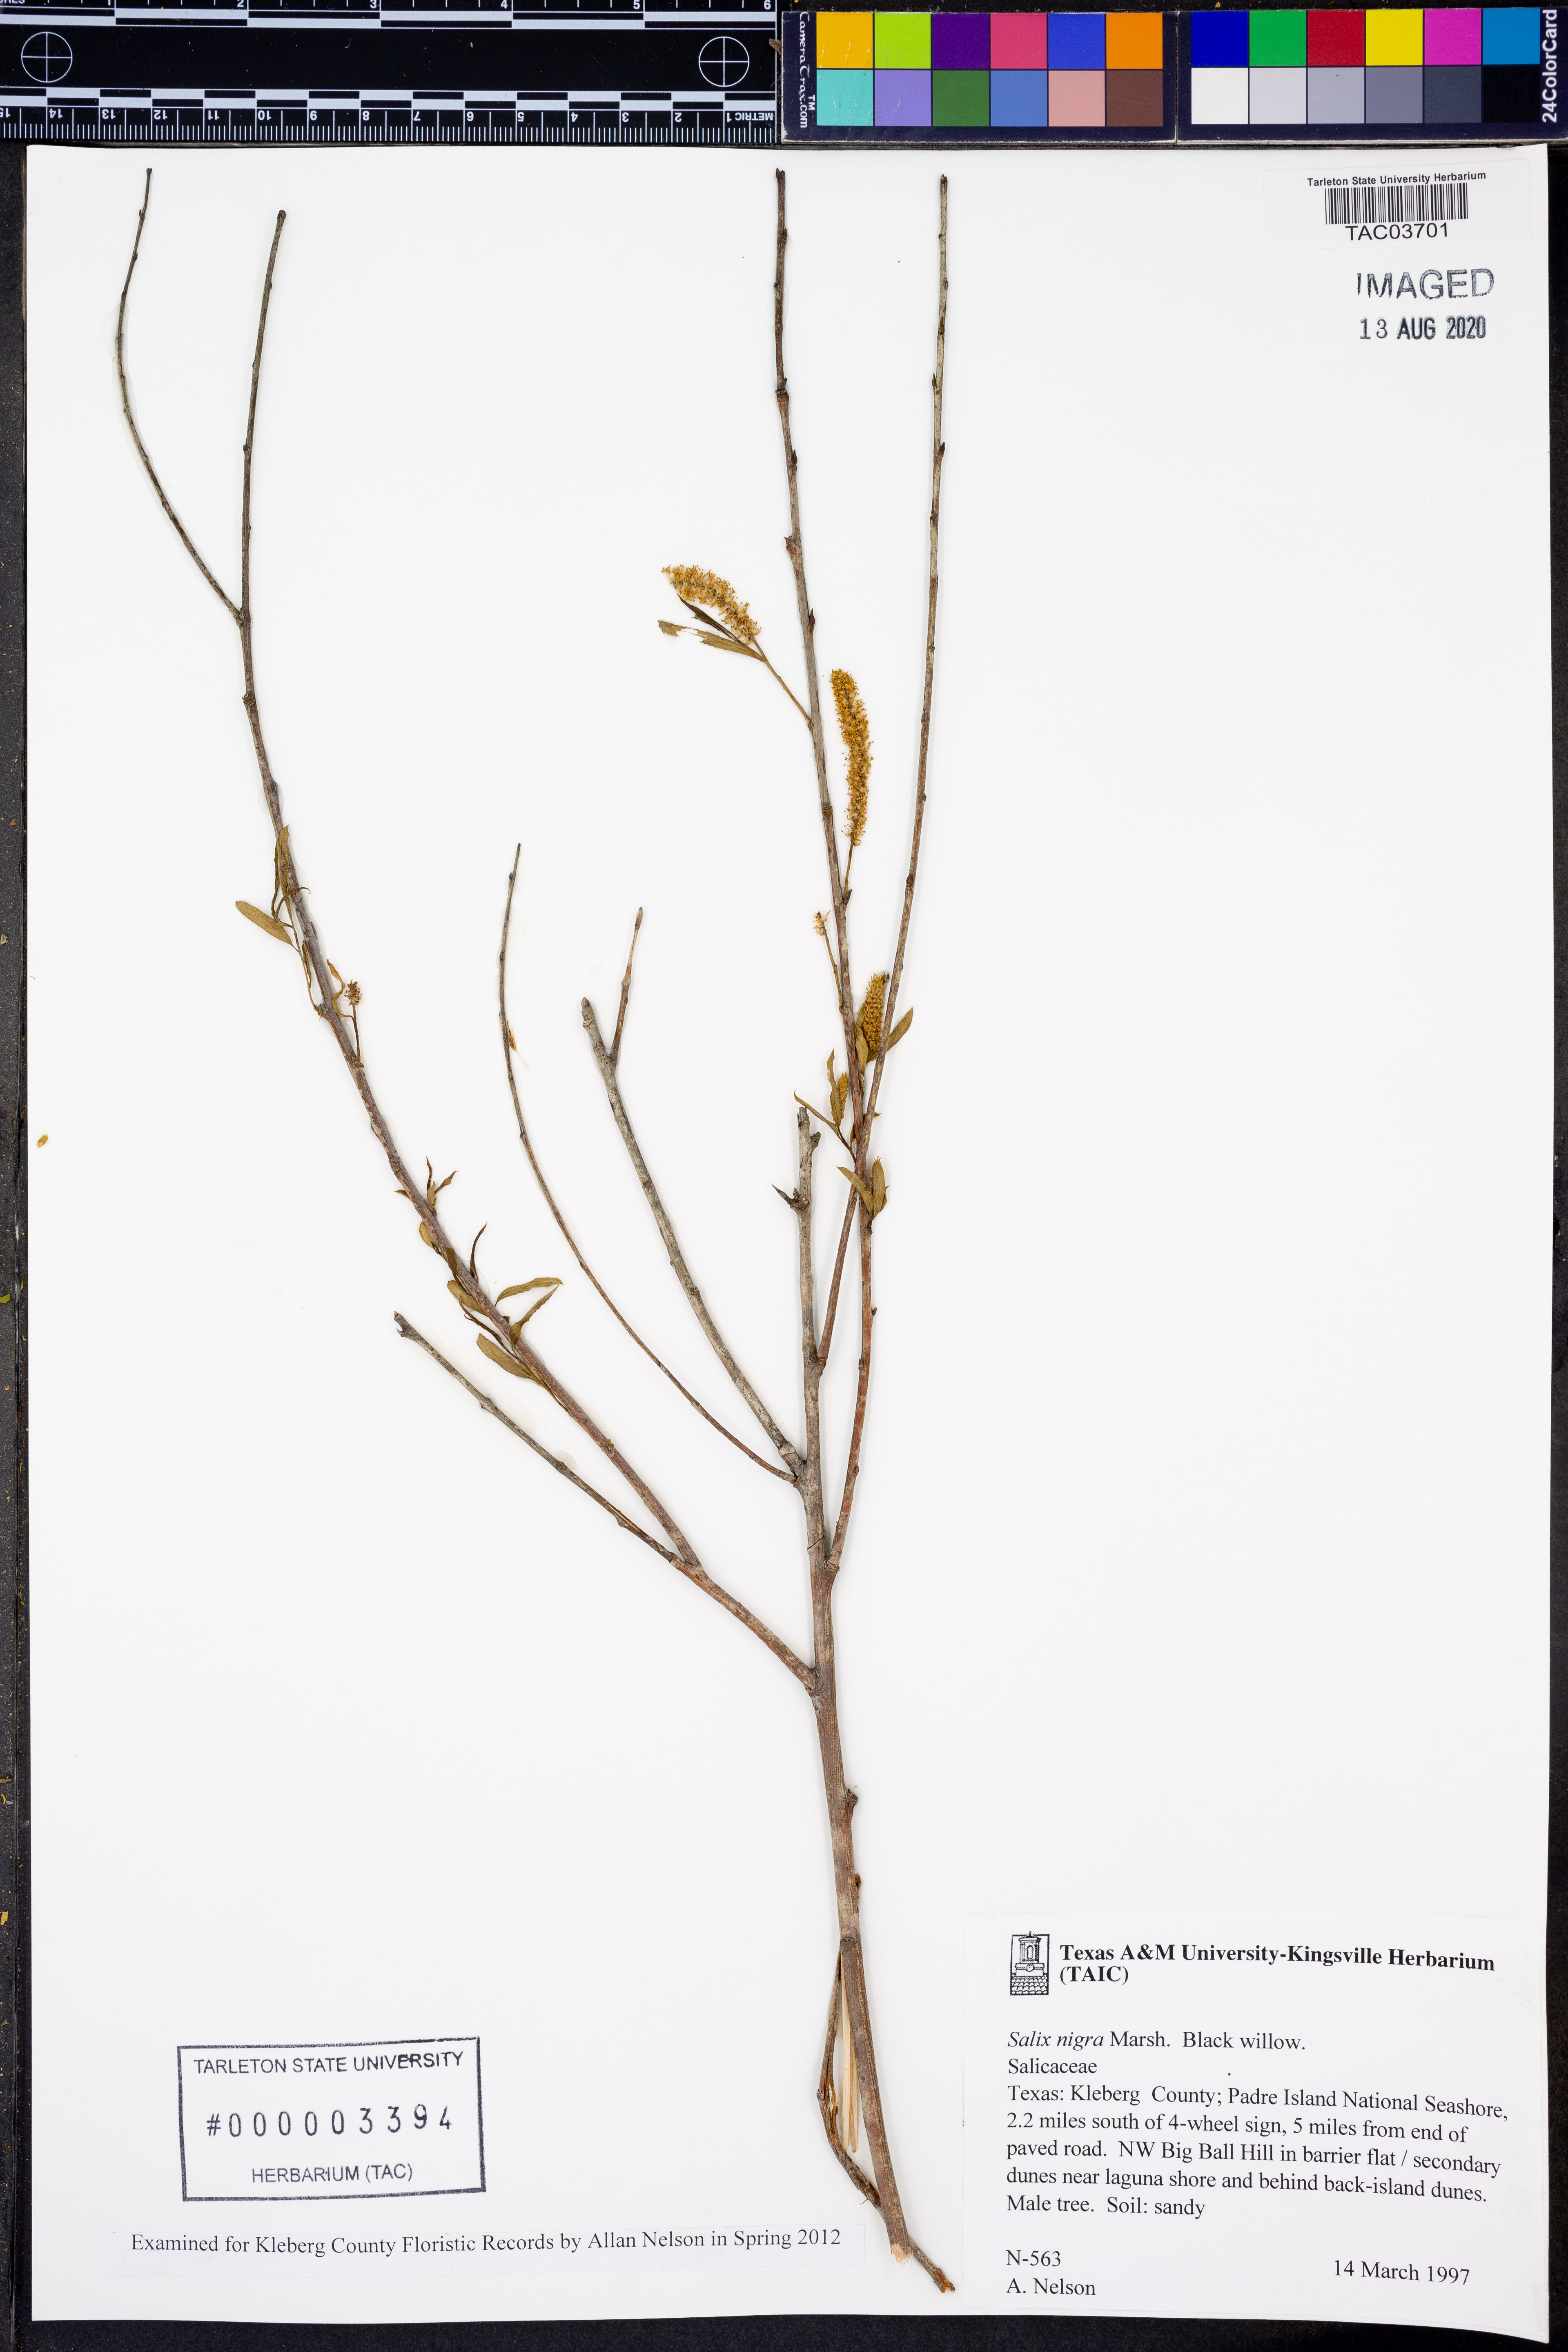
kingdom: Plantae
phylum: Tracheophyta
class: Magnoliopsida
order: Malpighiales
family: Salicaceae
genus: Salix
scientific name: Salix nigra
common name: Black willow
